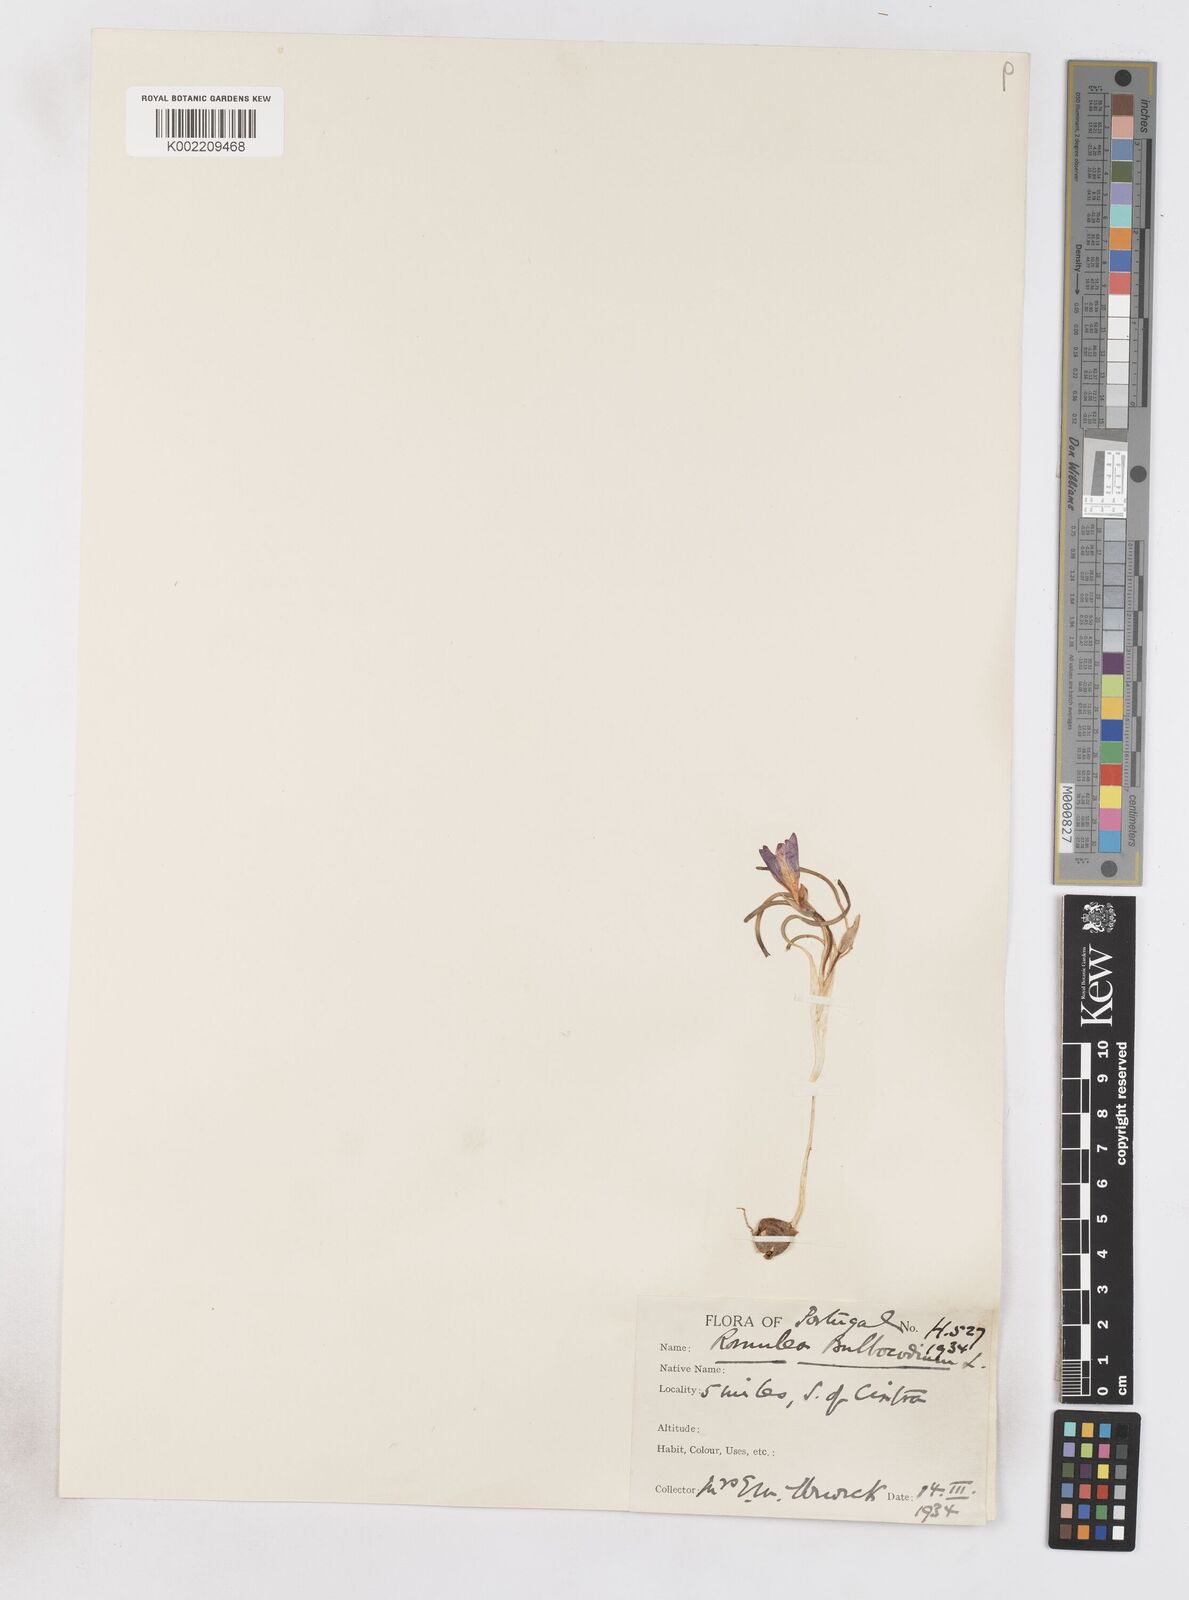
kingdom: Plantae
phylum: Tracheophyta
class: Liliopsida
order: Asparagales
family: Iridaceae
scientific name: Iridaceae
